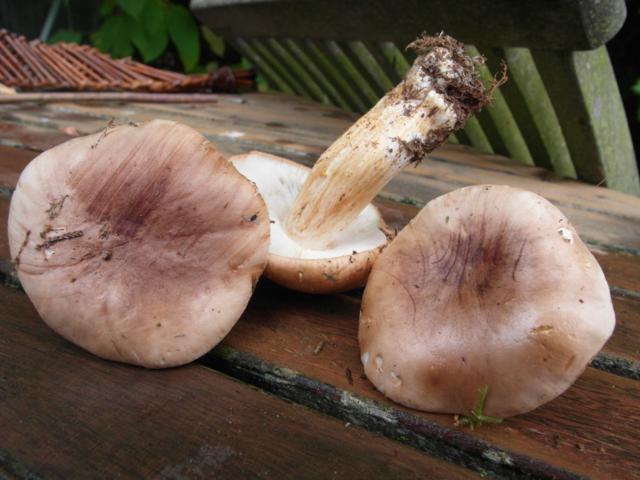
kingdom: Fungi
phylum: Basidiomycota
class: Agaricomycetes
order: Agaricales
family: Tricholomataceae
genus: Tricholoma
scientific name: Tricholoma stans
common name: stolt ridderhat
